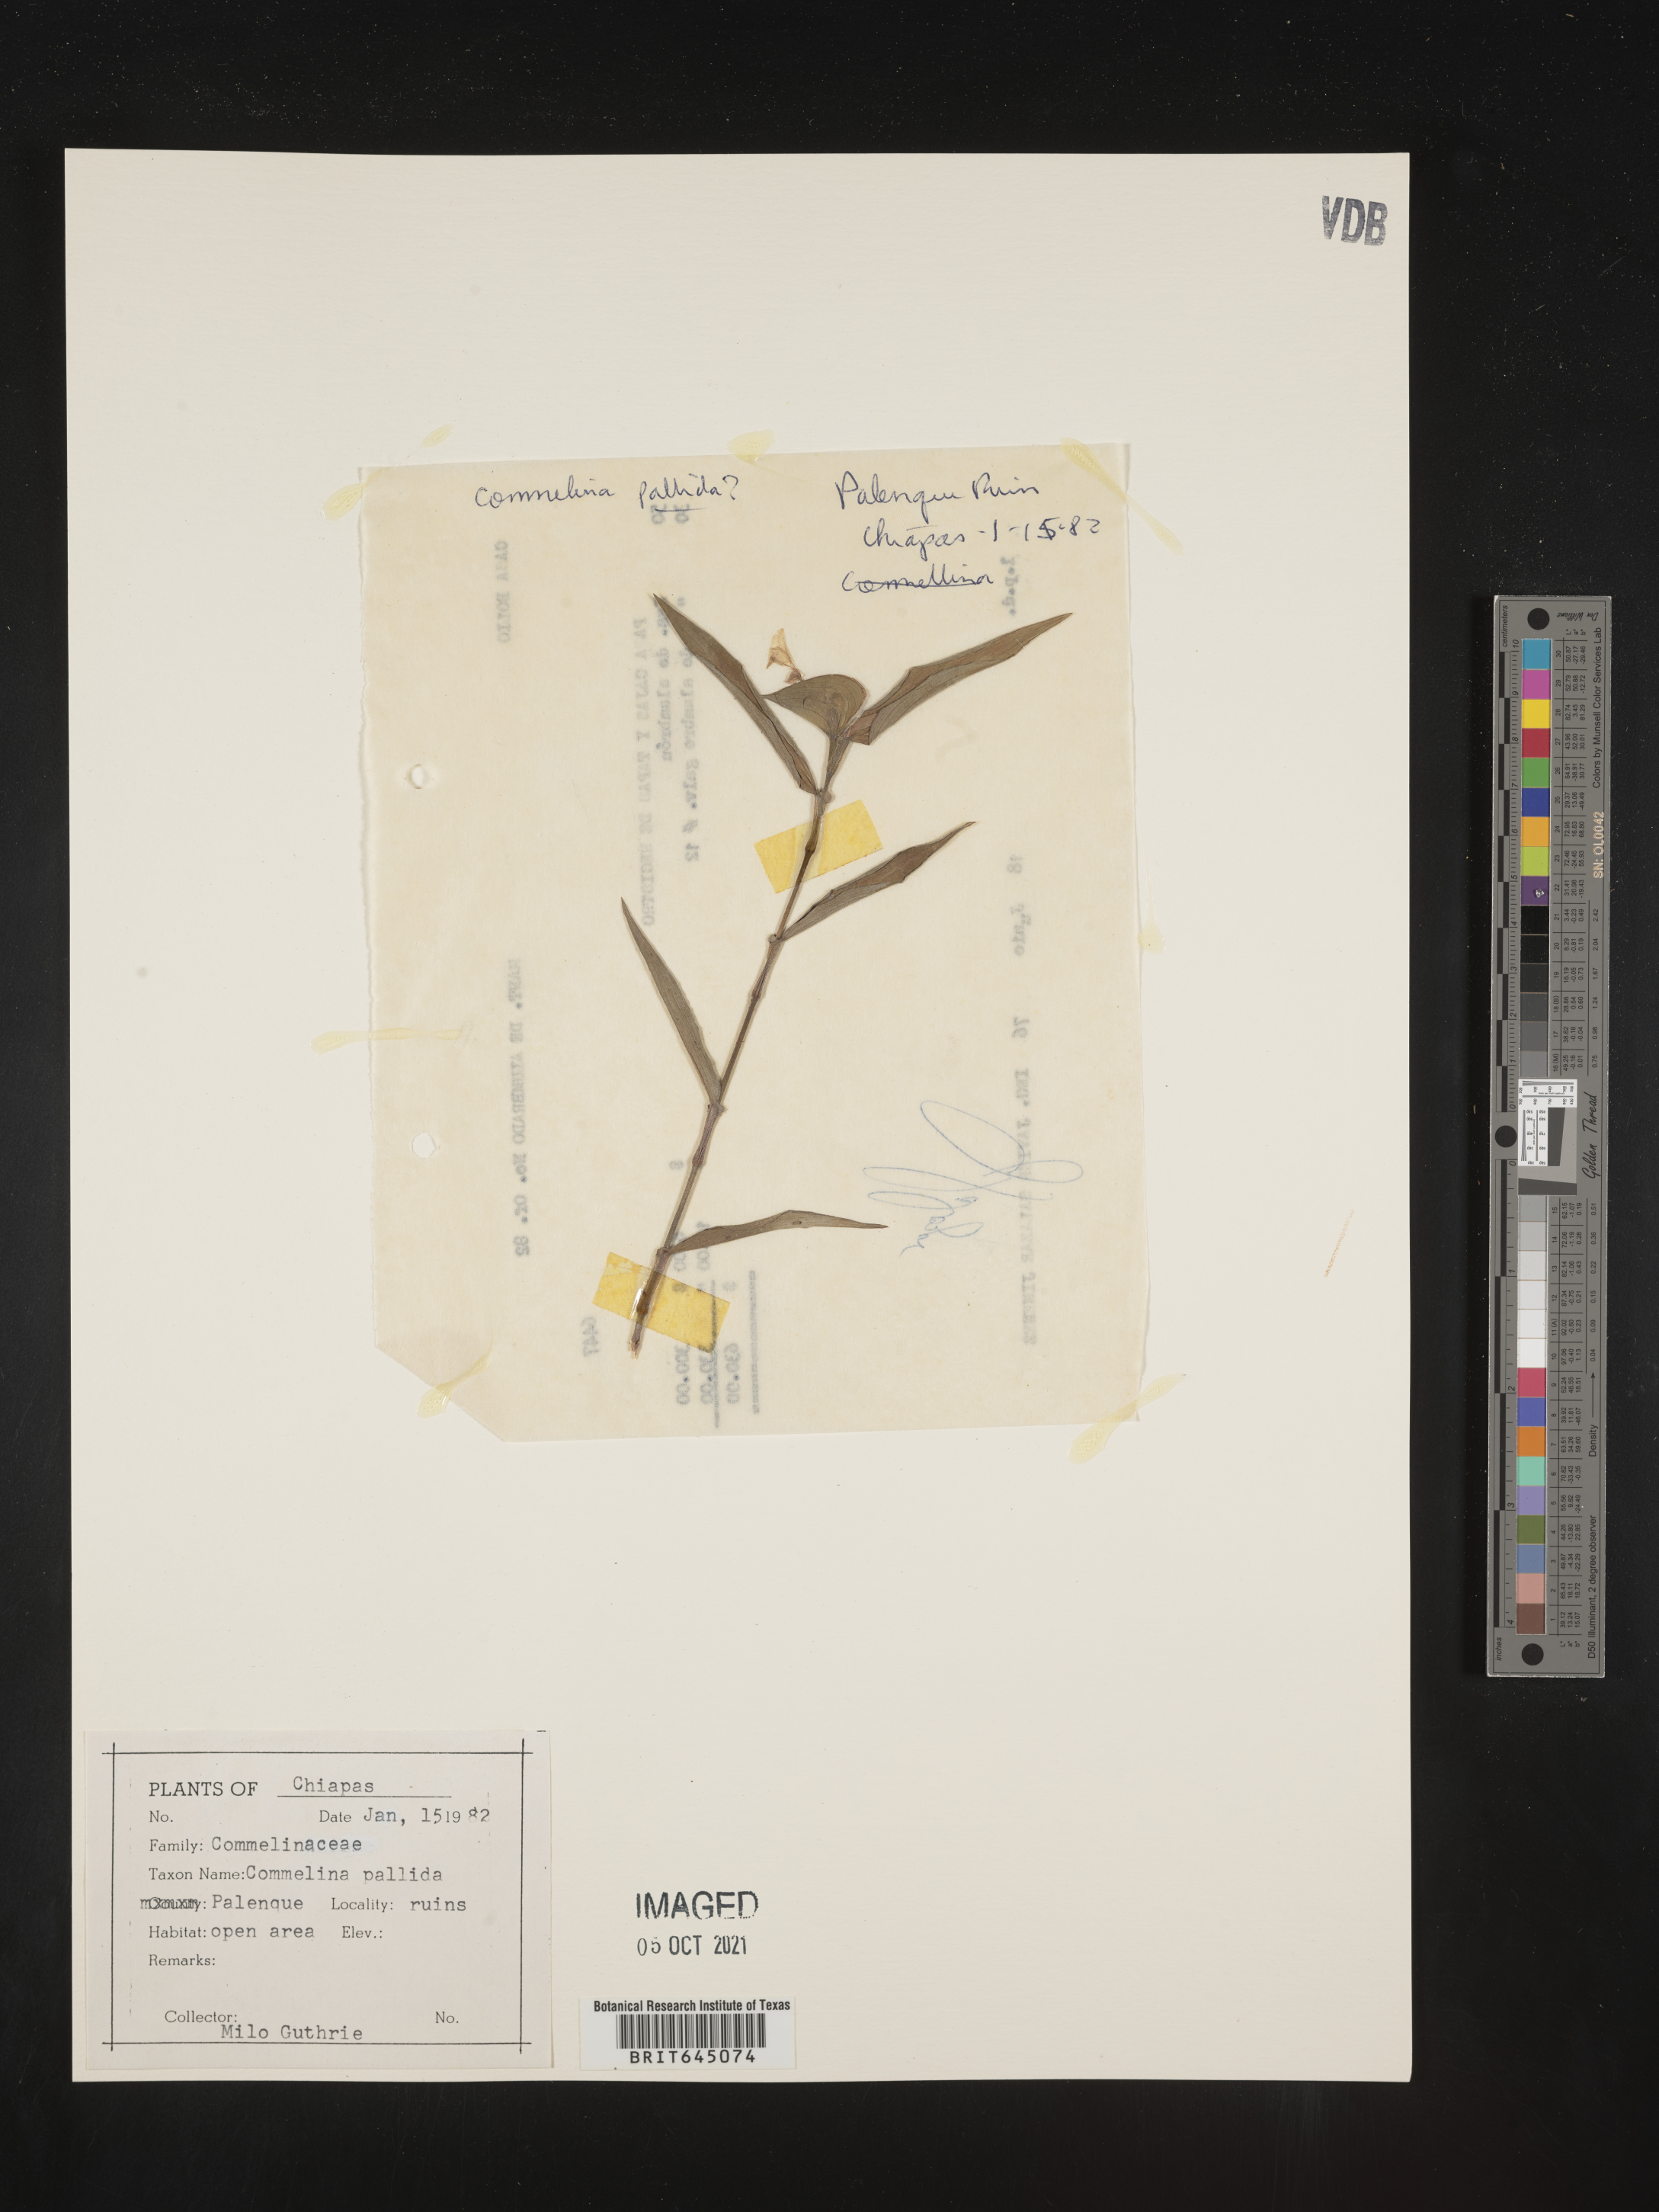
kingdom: Plantae
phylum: Tracheophyta
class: Liliopsida
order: Commelinales
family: Commelinaceae
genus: Commelina
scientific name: Commelina
